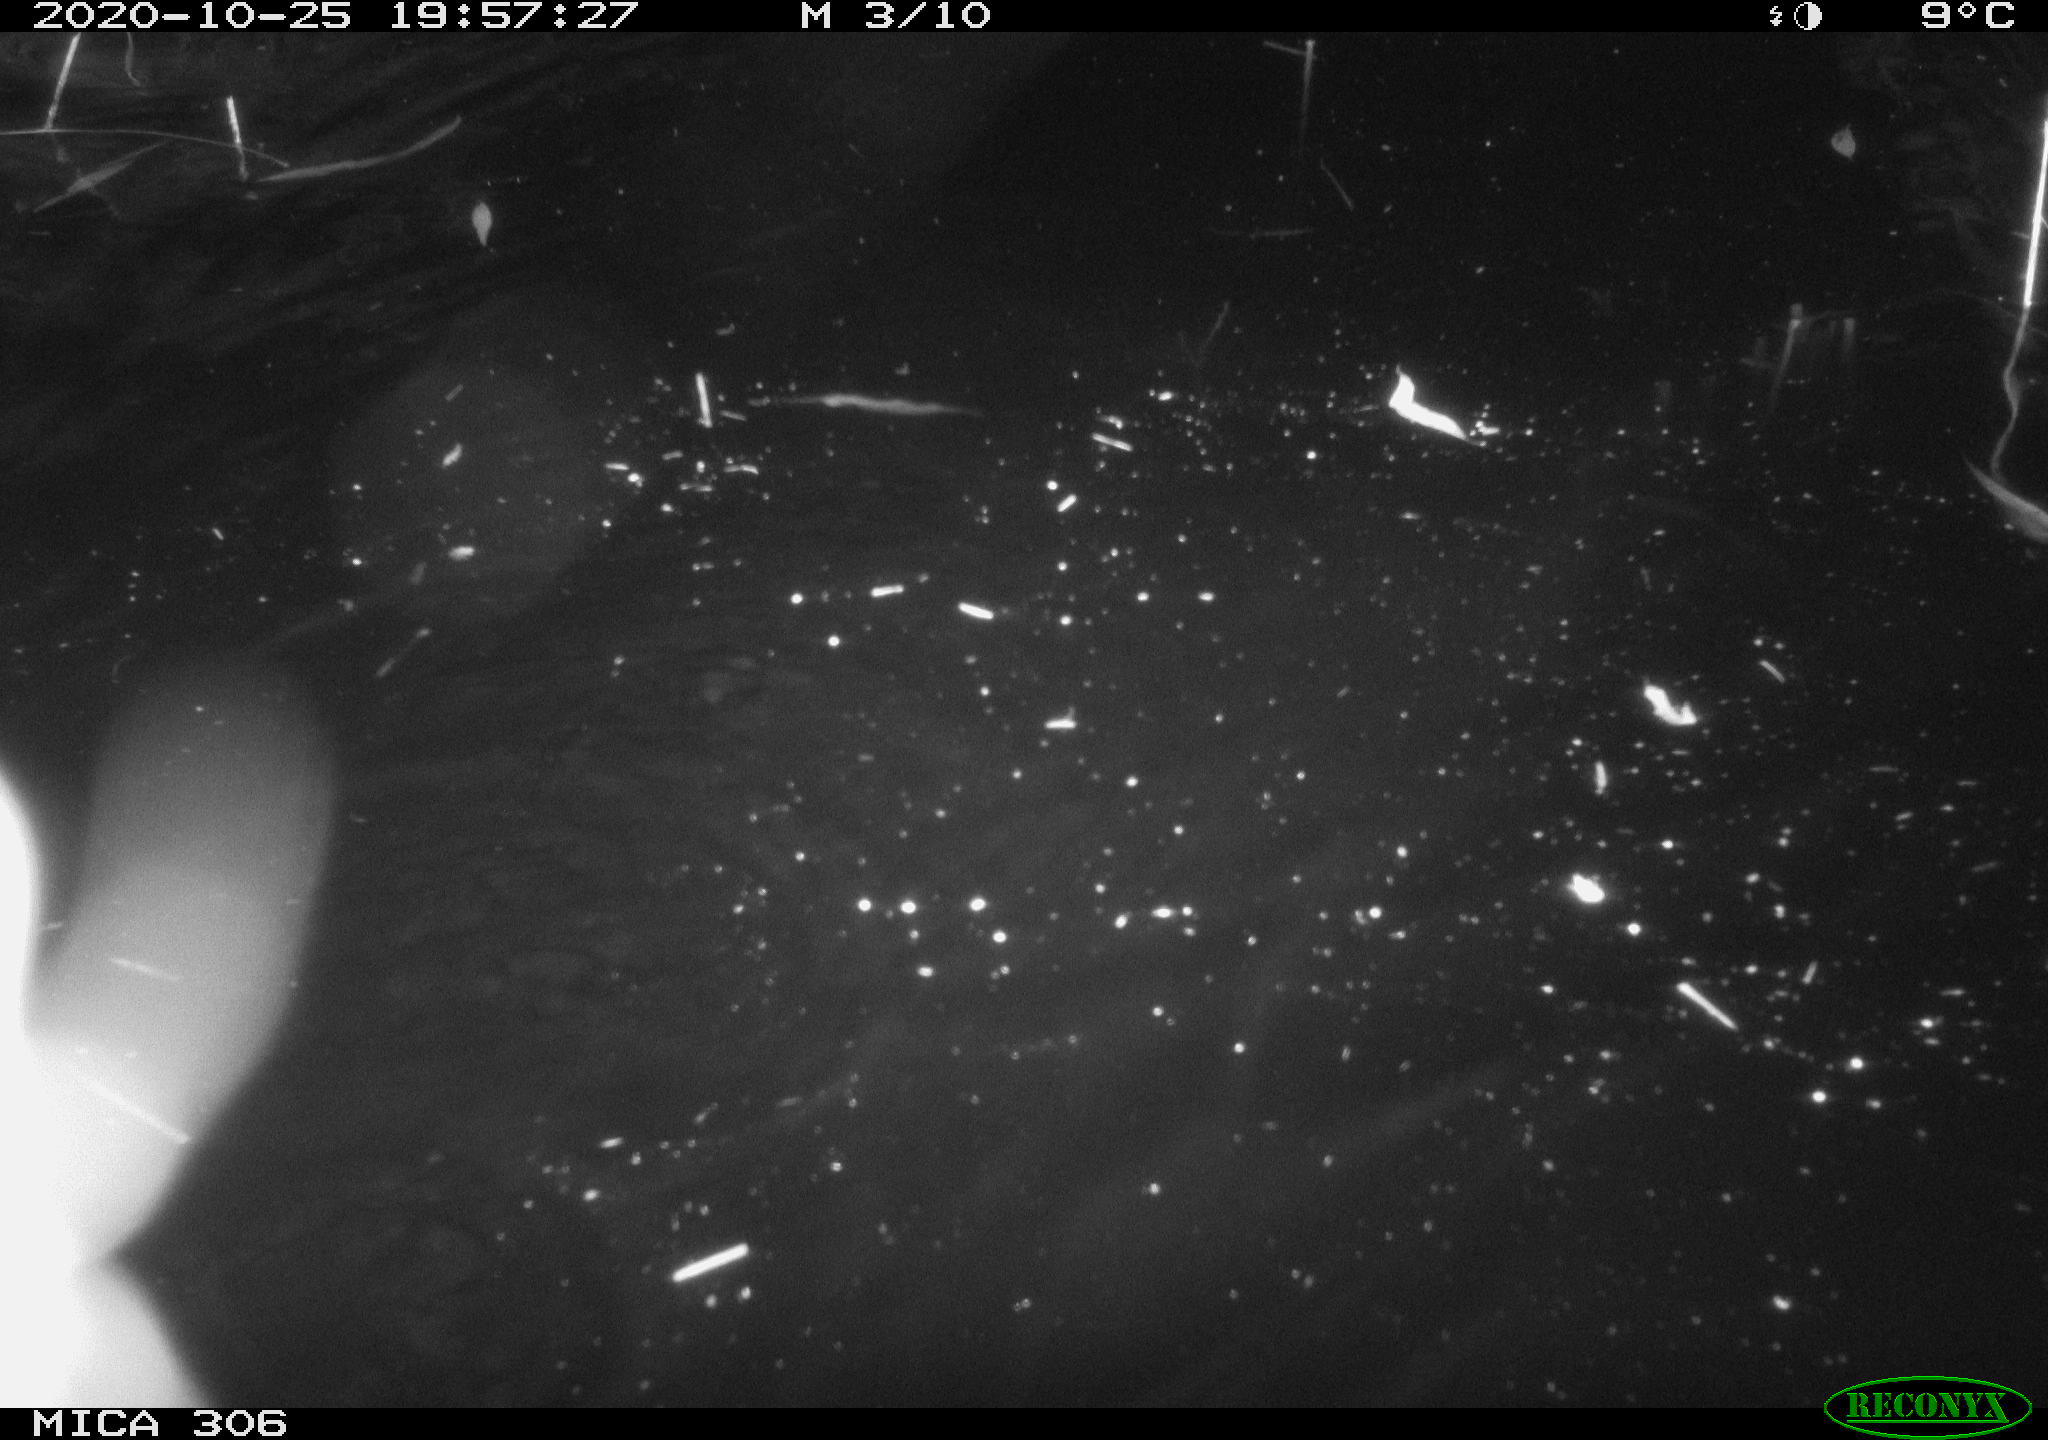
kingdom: Animalia
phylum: Chordata
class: Mammalia
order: Rodentia
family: Cricetidae
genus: Ondatra
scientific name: Ondatra zibethicus
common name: Muskrat
